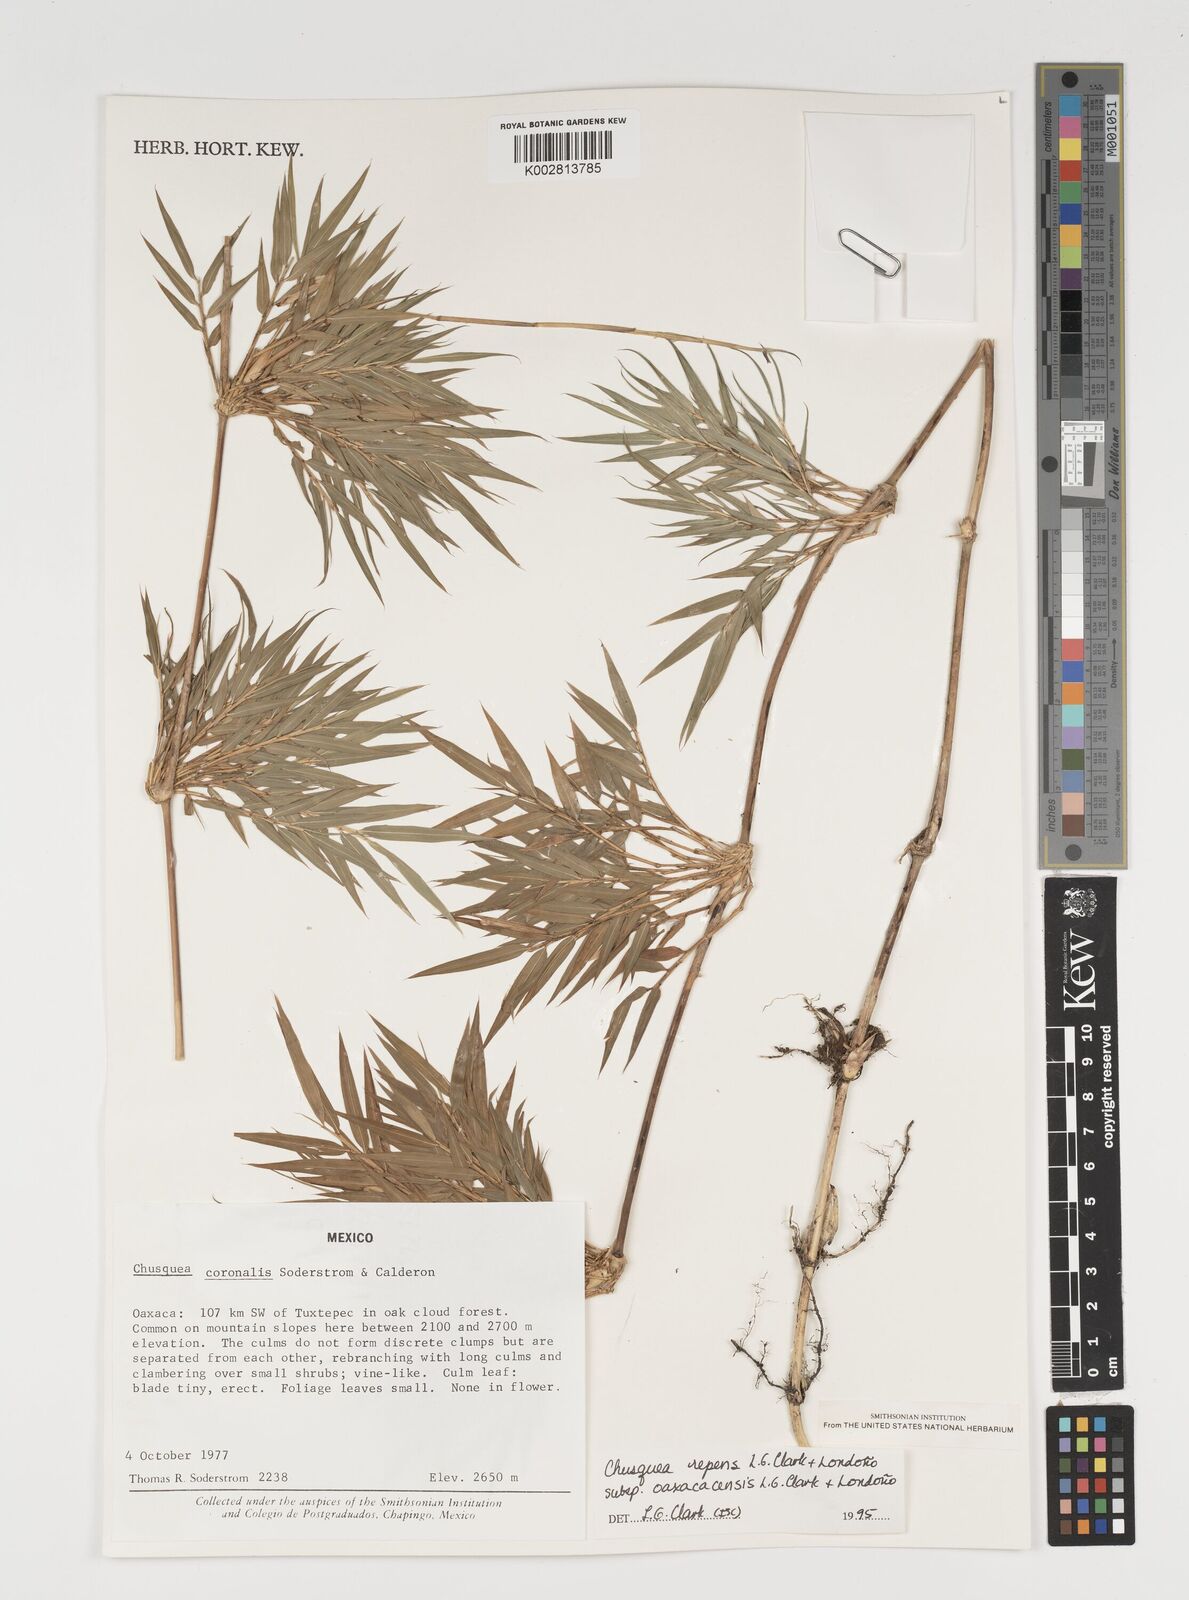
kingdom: Plantae
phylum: Tracheophyta
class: Liliopsida
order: Poales
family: Poaceae
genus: Chusquea
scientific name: Chusquea repens
